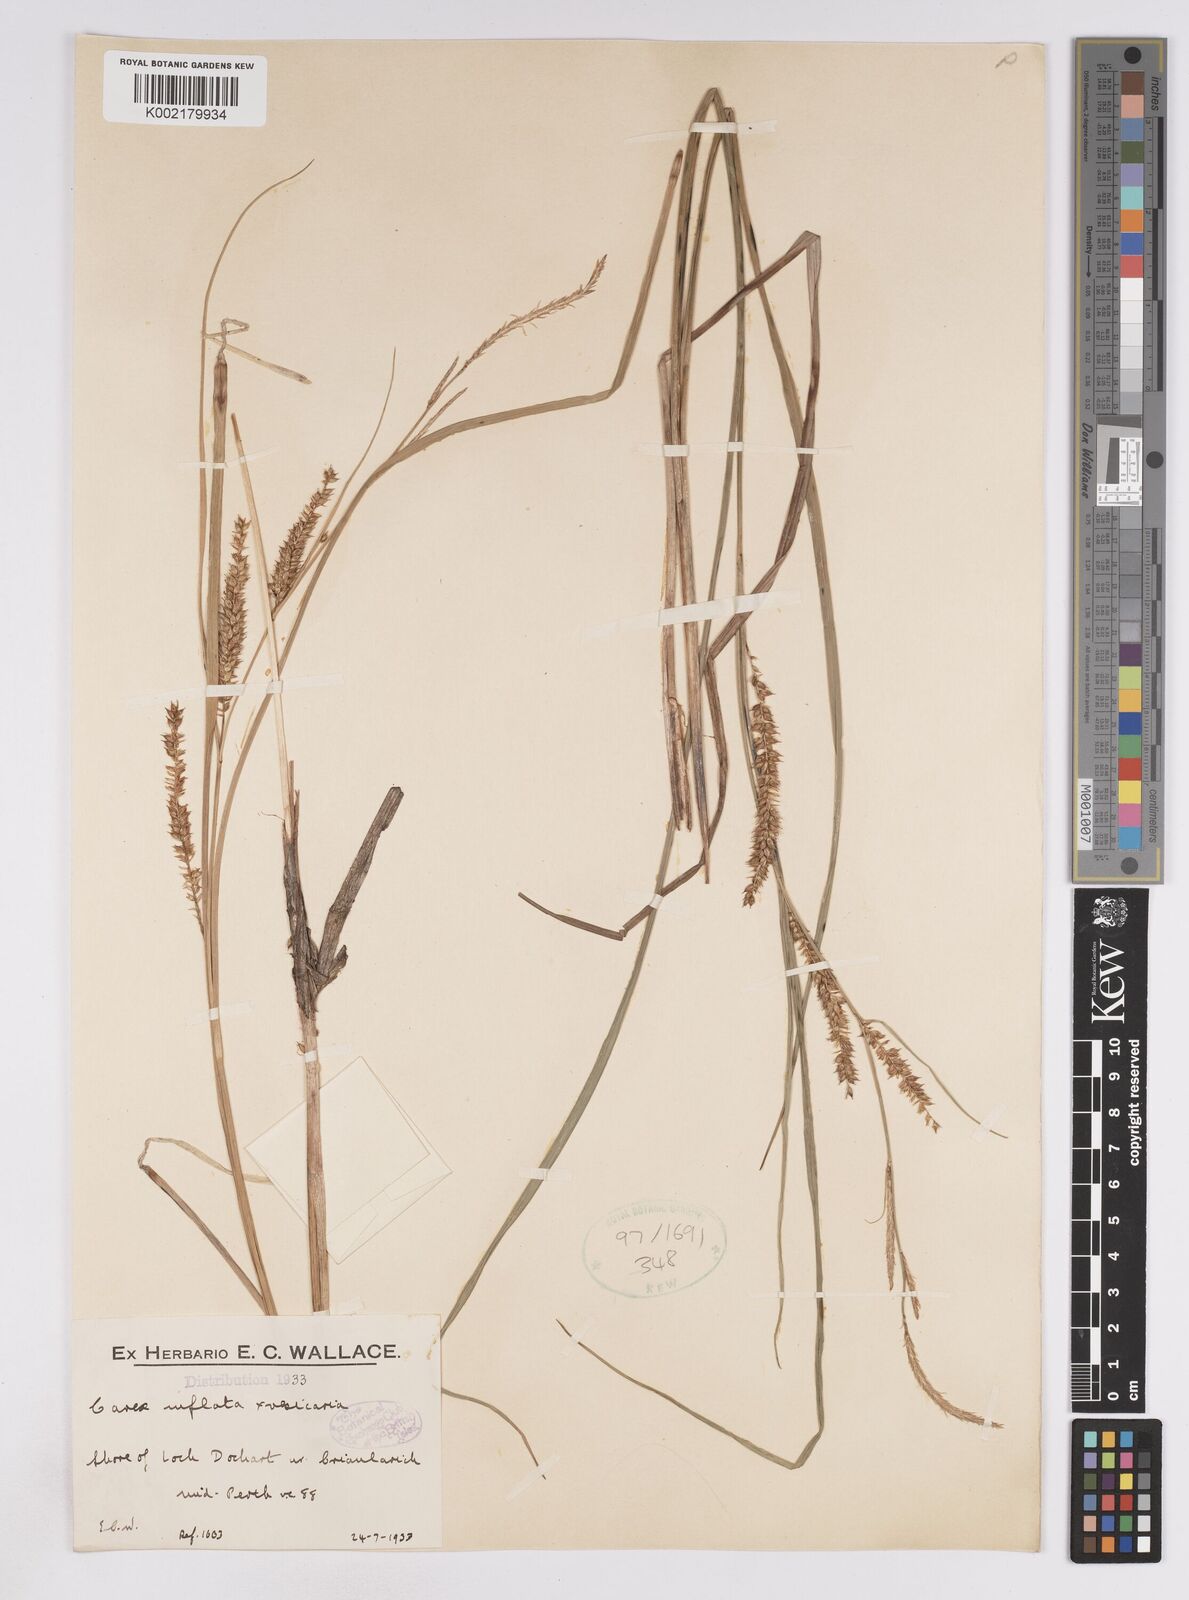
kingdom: Plantae
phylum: Tracheophyta
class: Liliopsida
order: Poales
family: Cyperaceae
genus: Carex
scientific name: Carex rostrata
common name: Bottle sedge
